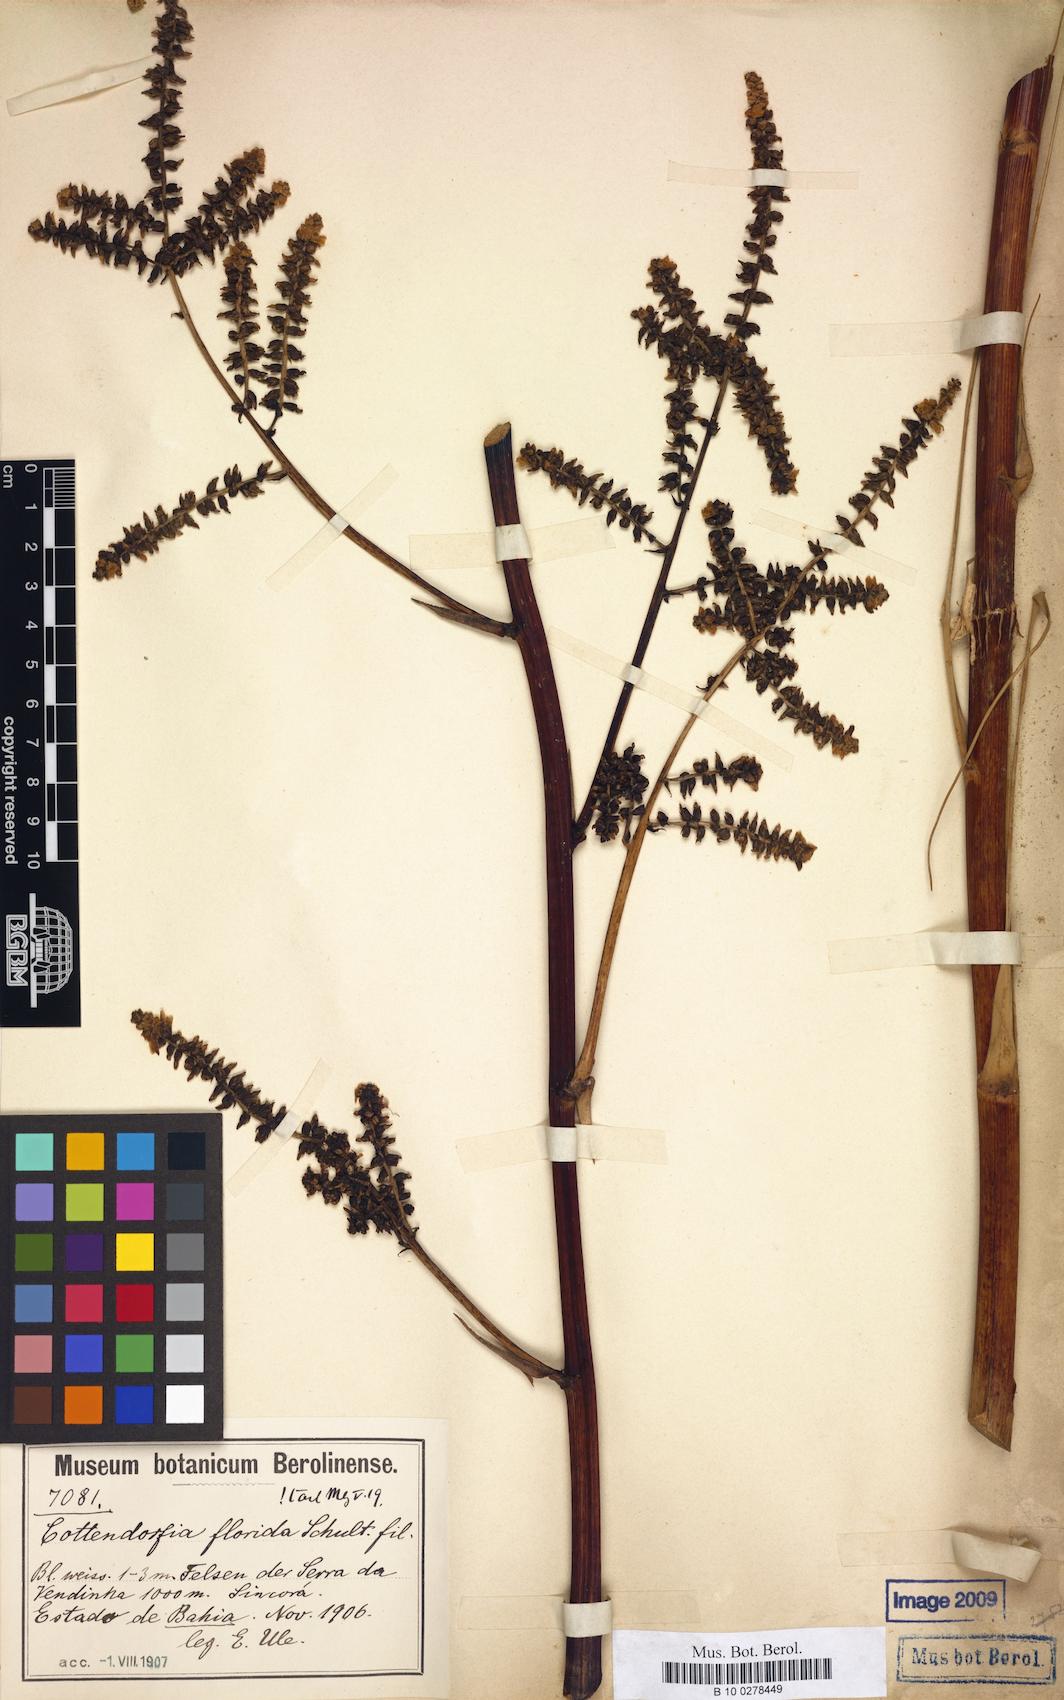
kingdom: Plantae
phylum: Tracheophyta
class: Liliopsida
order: Poales
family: Bromeliaceae
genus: Cottendorfia
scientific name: Cottendorfia florida
